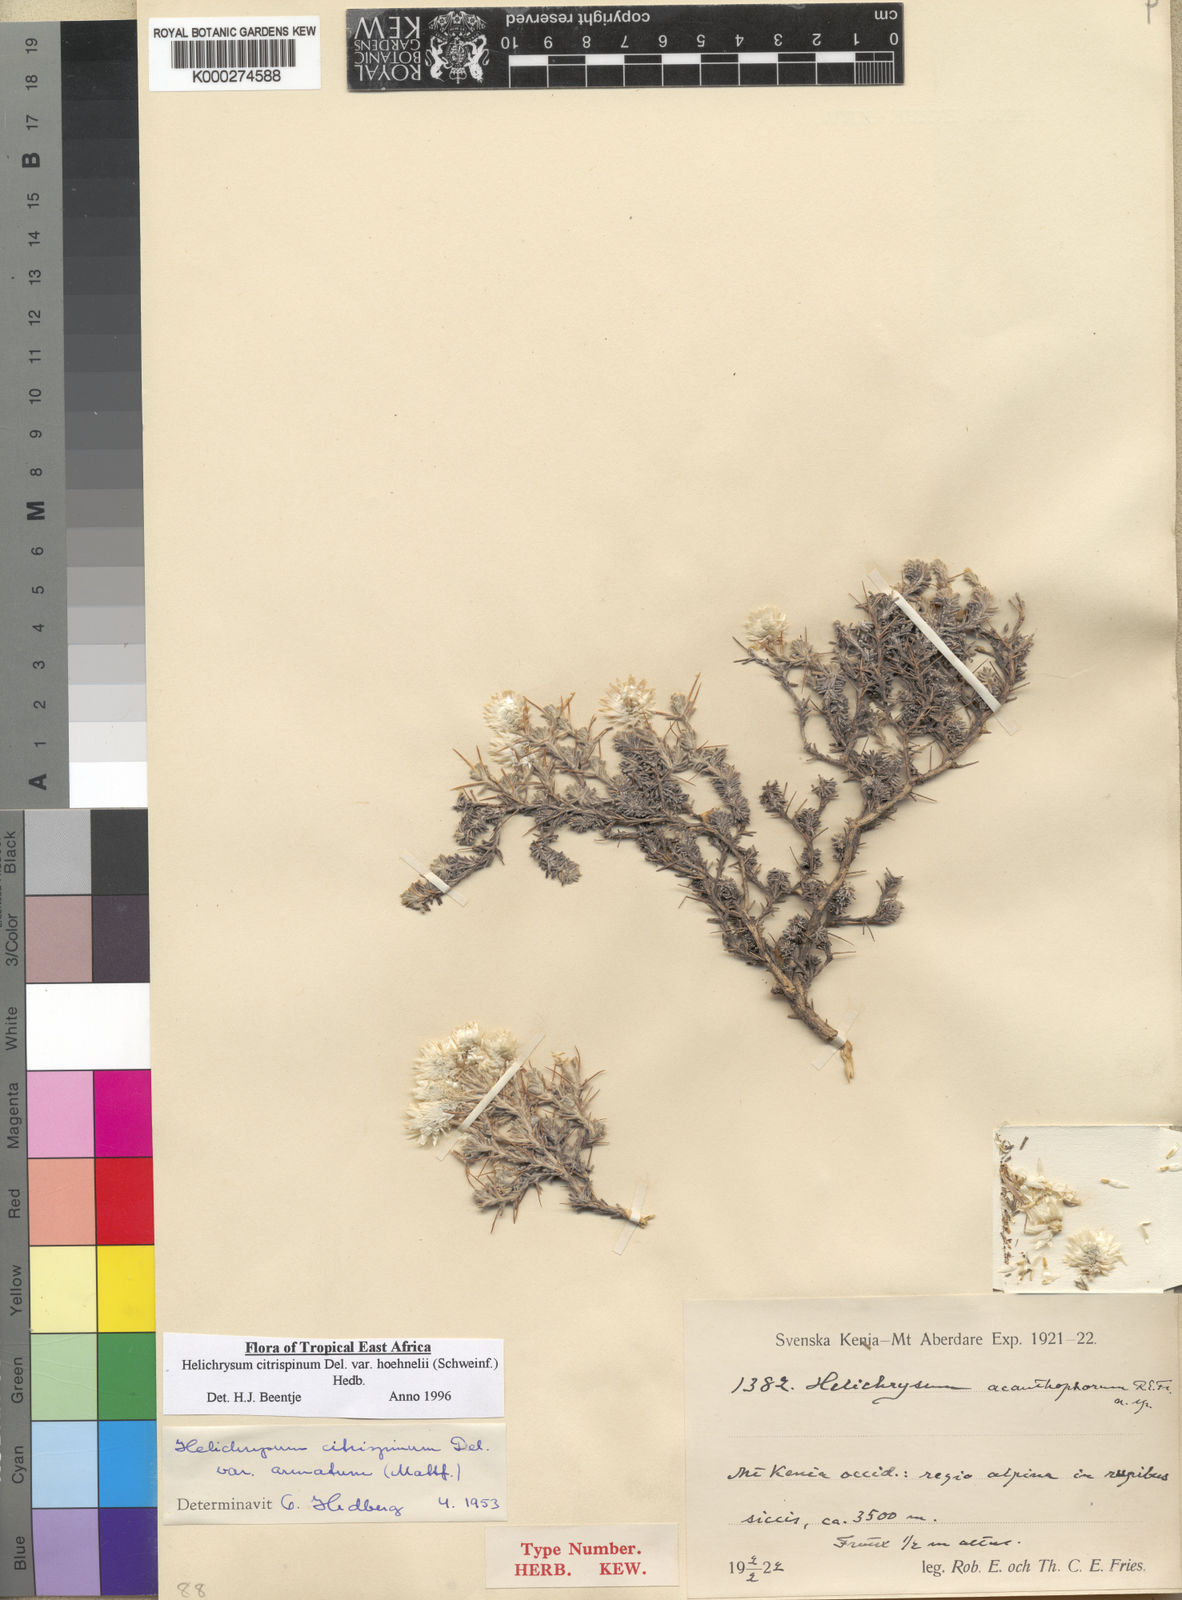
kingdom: Plantae
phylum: Tracheophyta
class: Magnoliopsida
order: Asterales
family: Asteraceae
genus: Helichrysum
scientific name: Helichrysum citrispinum
